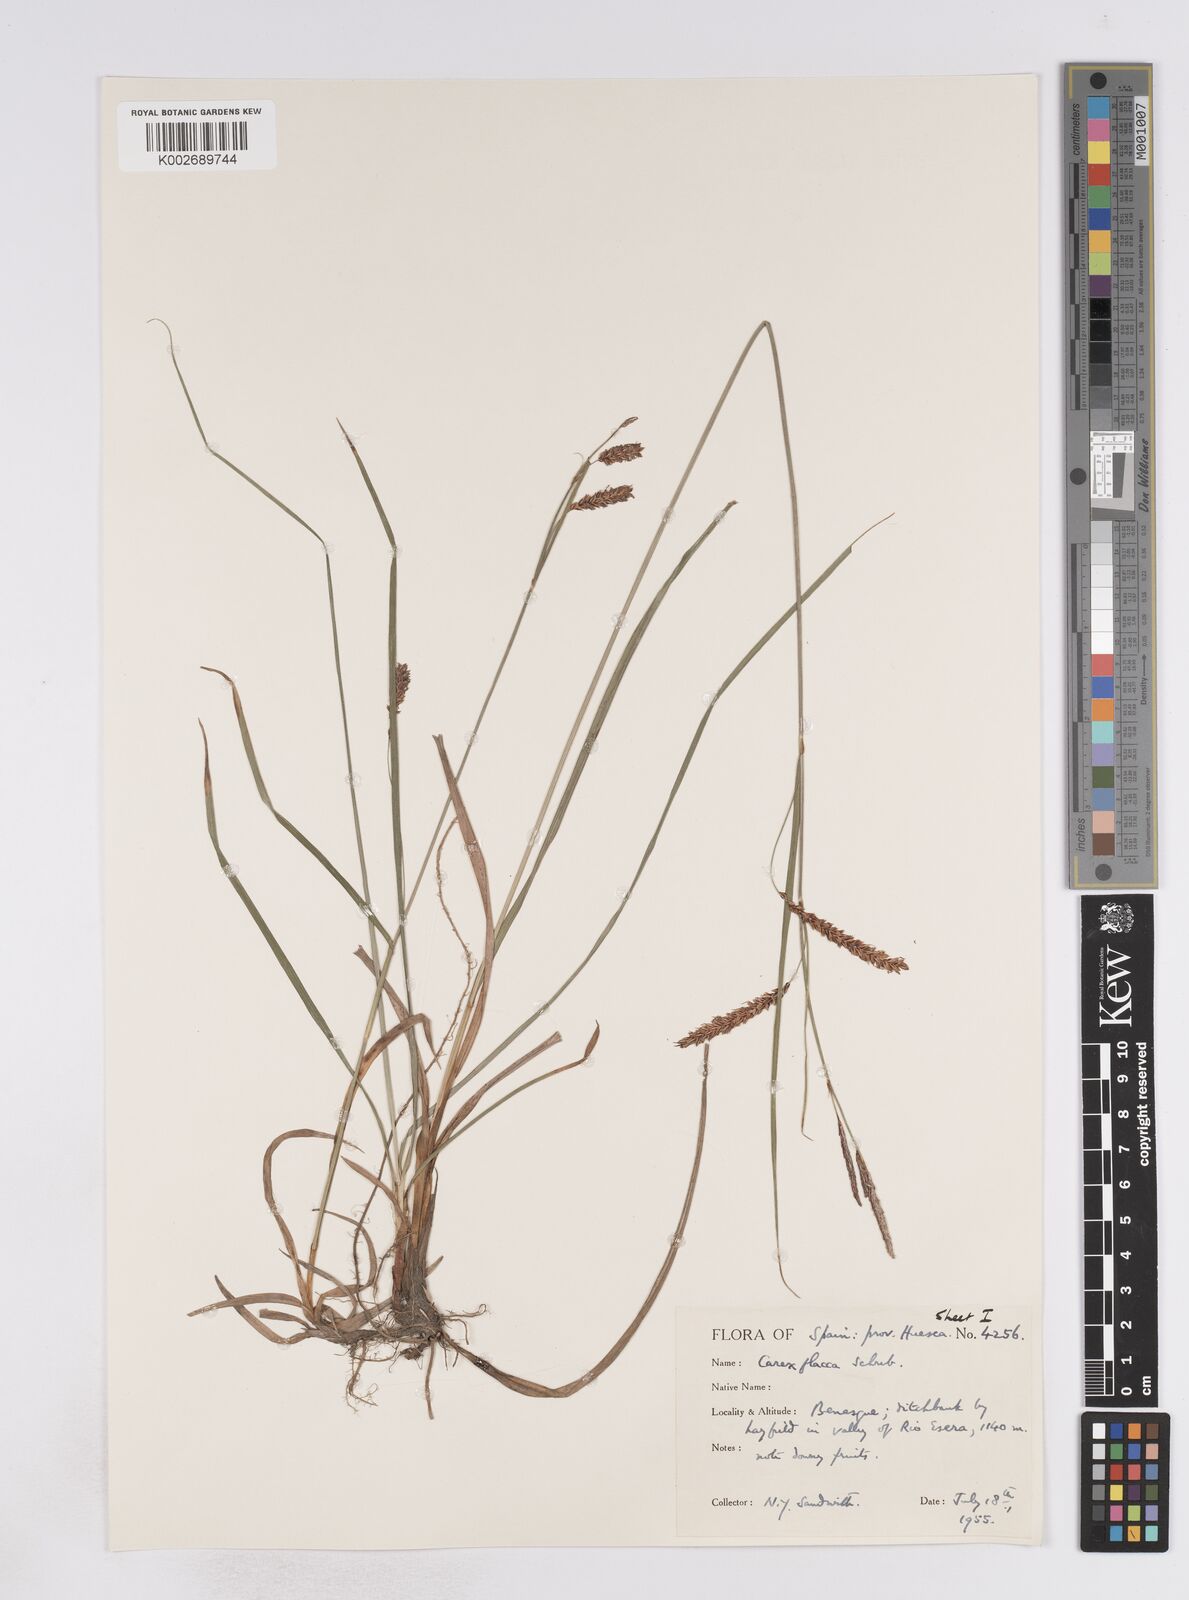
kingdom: Plantae
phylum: Tracheophyta
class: Liliopsida
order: Poales
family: Cyperaceae
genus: Carex
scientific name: Carex flacca
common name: Glaucous sedge
